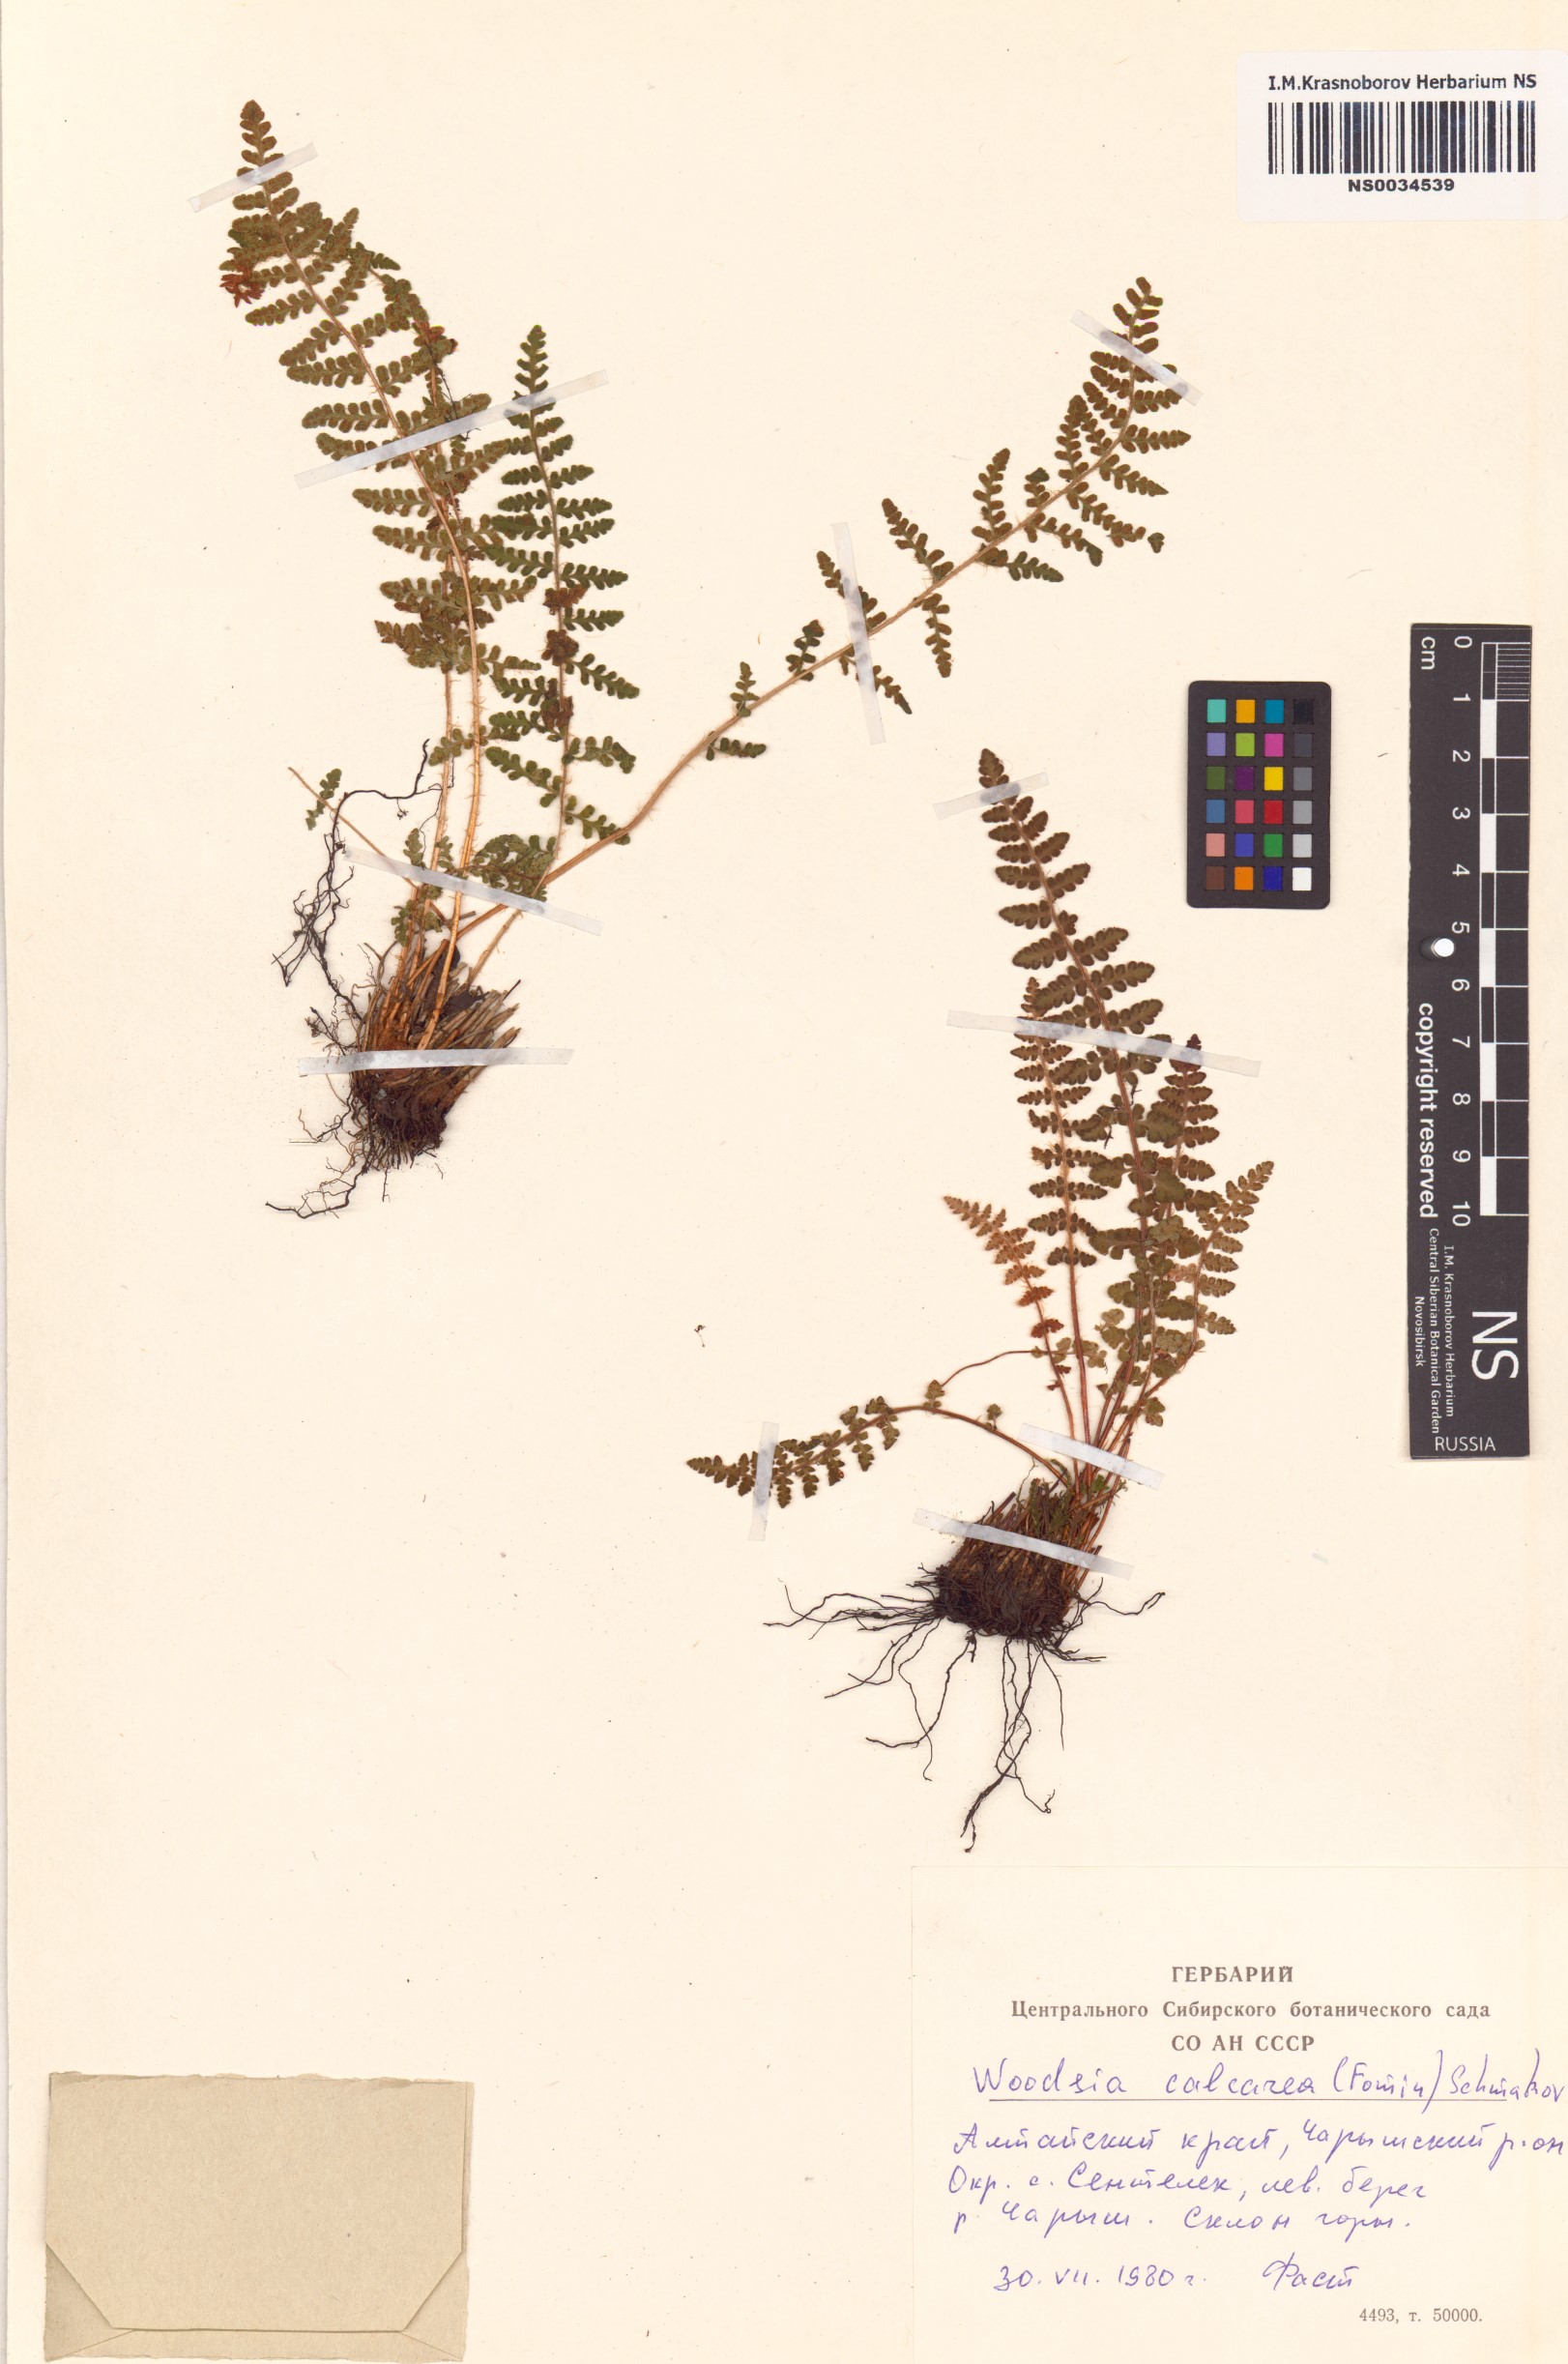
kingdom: Plantae
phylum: Tracheophyta
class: Polypodiopsida
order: Polypodiales
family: Woodsiaceae
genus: Woodsia
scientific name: Woodsia calcarea
